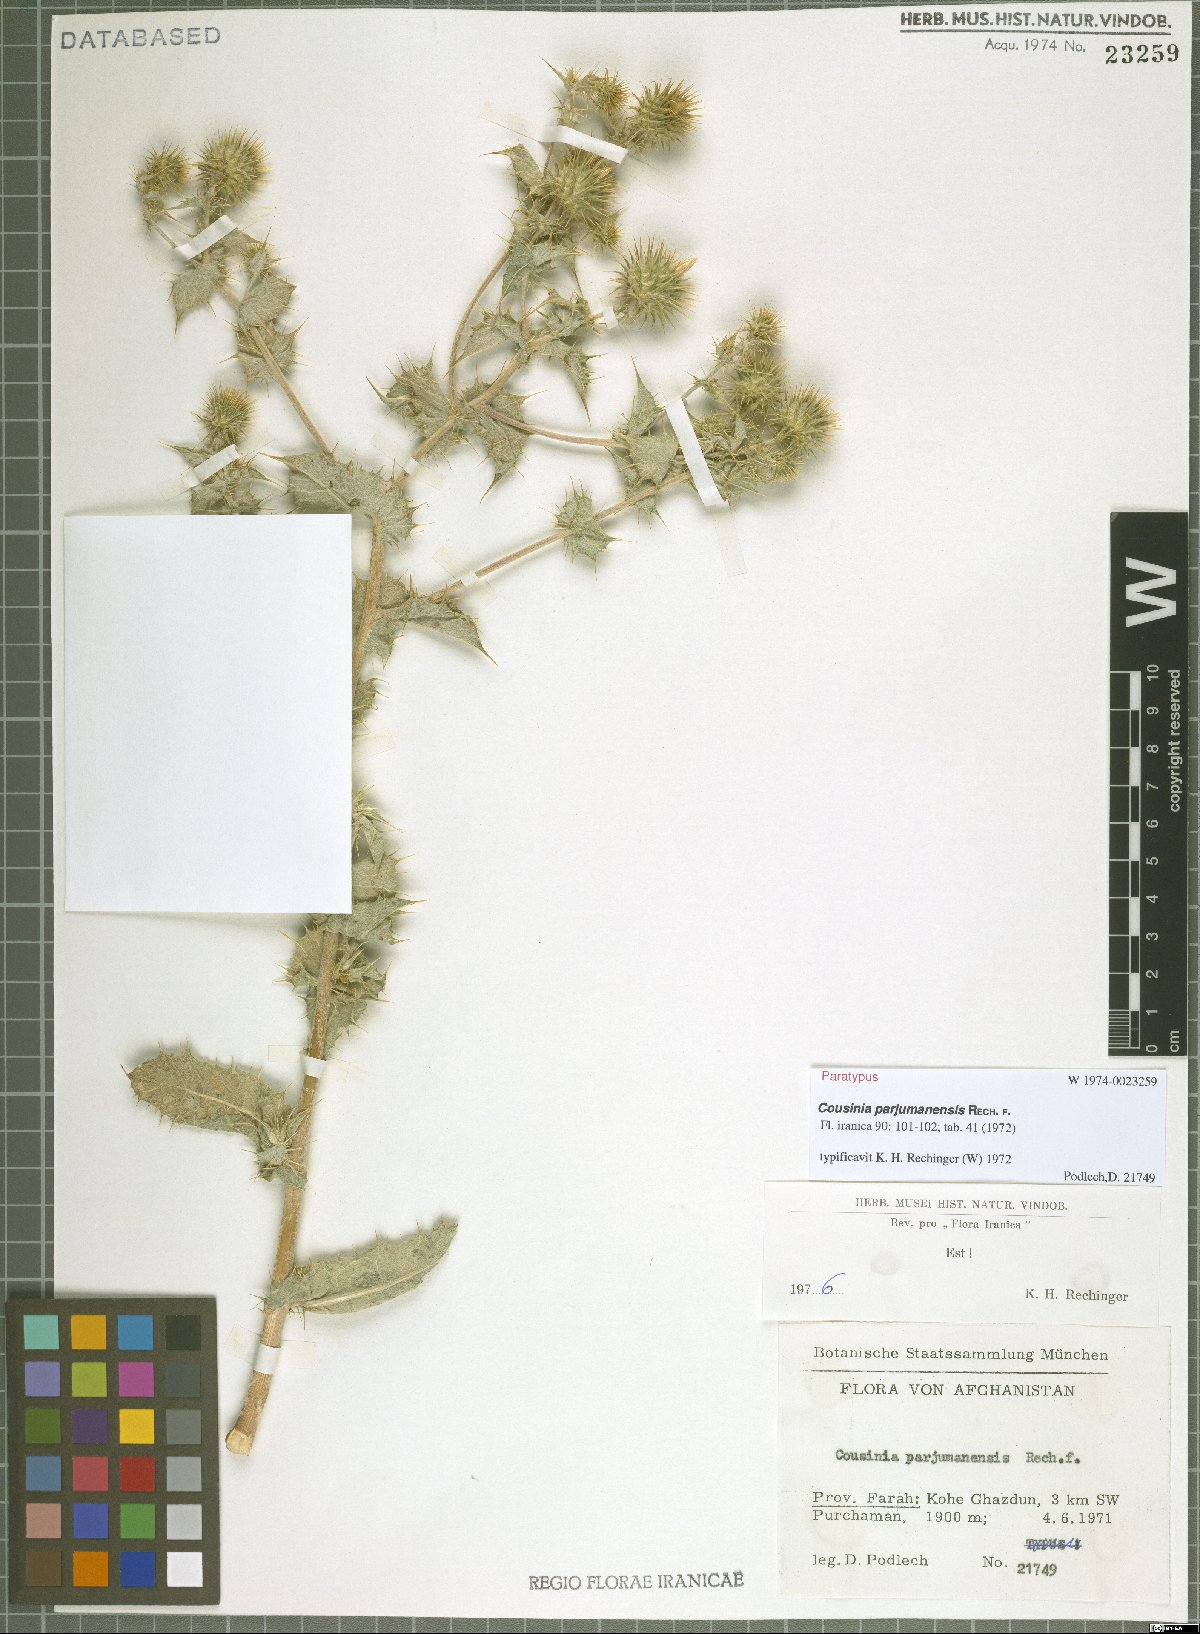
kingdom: Plantae
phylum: Tracheophyta
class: Magnoliopsida
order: Asterales
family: Asteraceae
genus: Cousinia
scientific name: Cousinia parjumanensis
